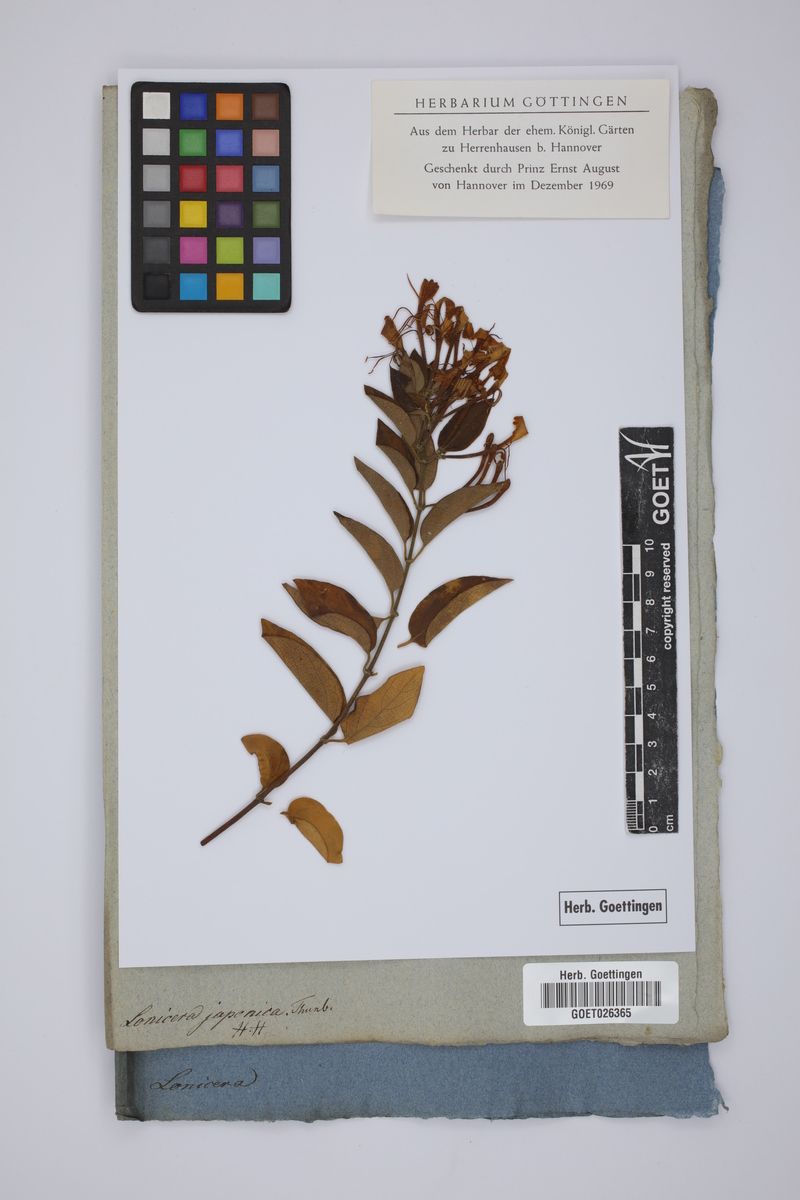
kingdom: Plantae
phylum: Tracheophyta
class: Magnoliopsida
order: Dipsacales
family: Caprifoliaceae
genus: Lonicera
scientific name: Lonicera japonica
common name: Japanese honeysuckle
